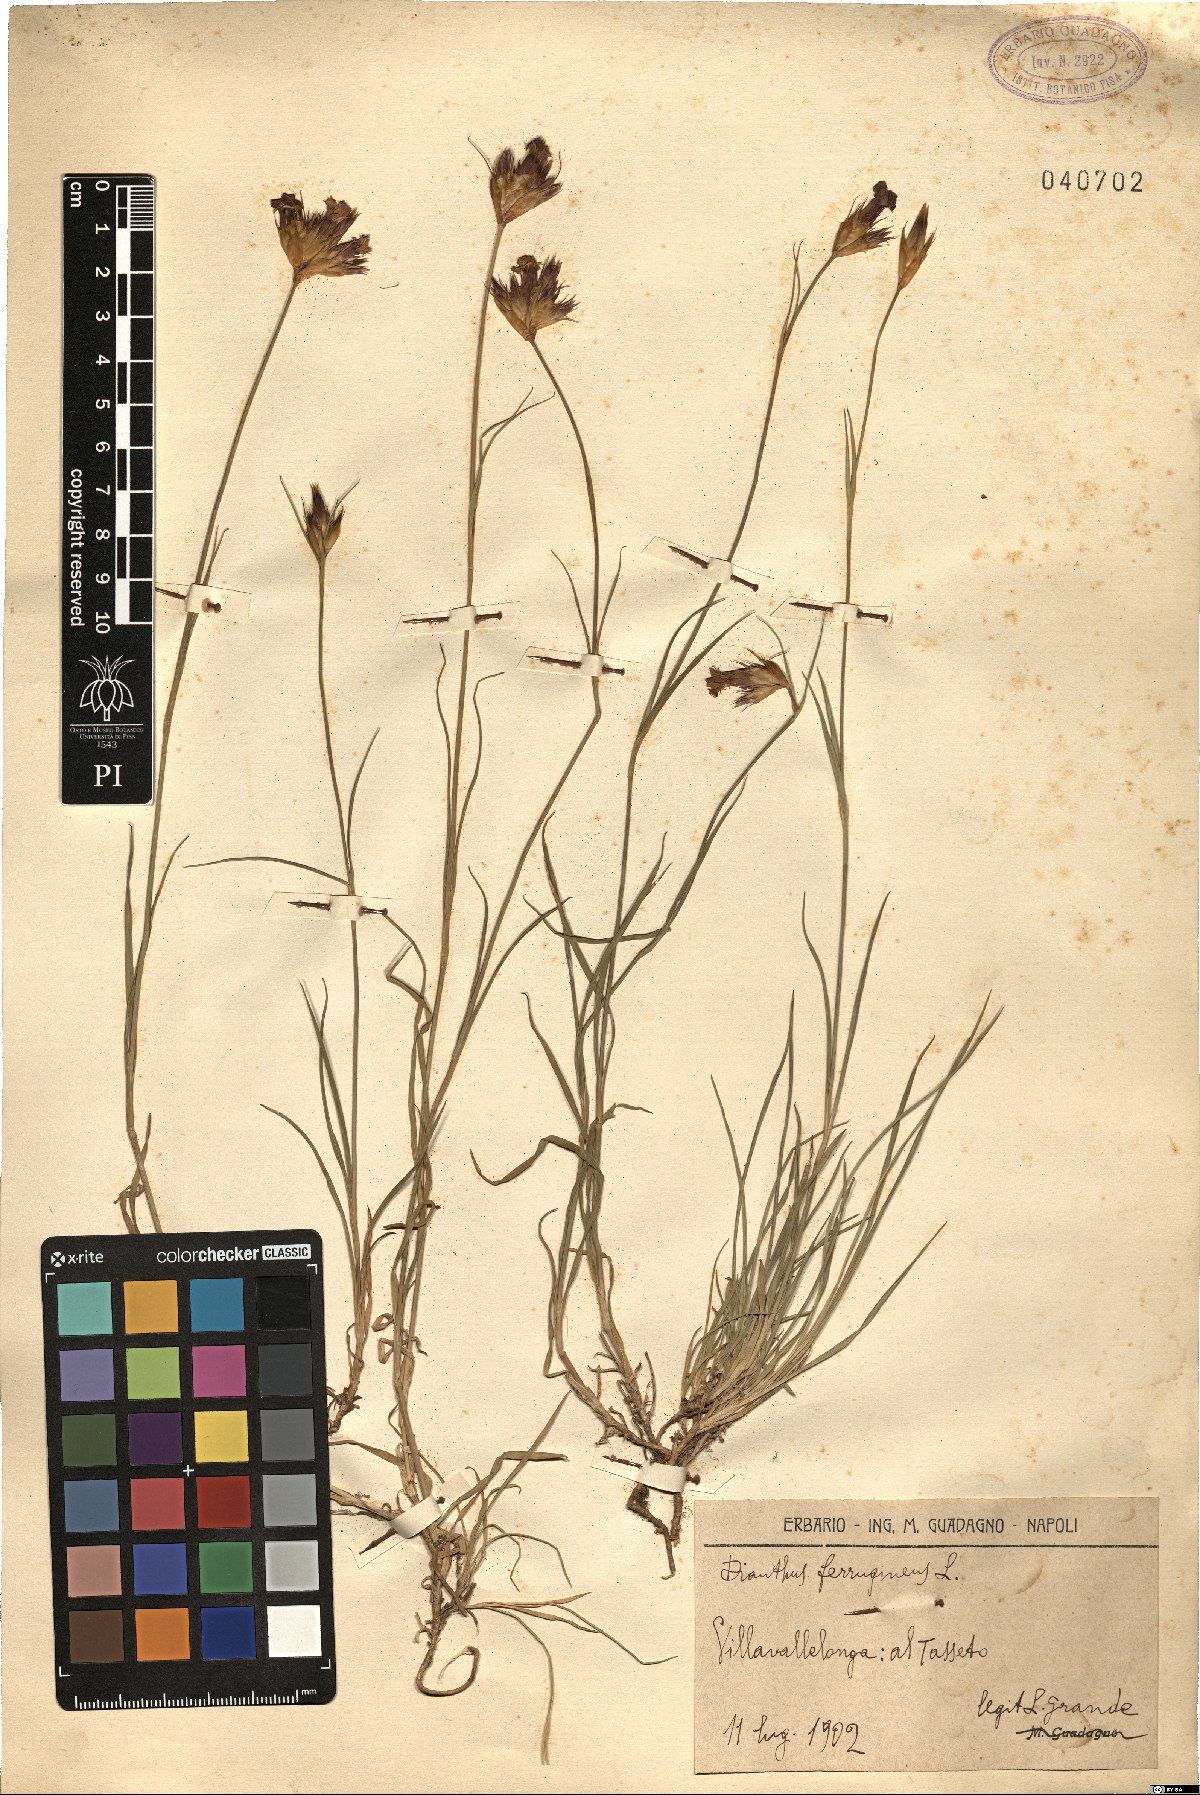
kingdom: Plantae
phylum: Tracheophyta
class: Magnoliopsida
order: Caryophyllales
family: Caryophyllaceae
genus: Dianthus
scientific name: Dianthus crassipes
